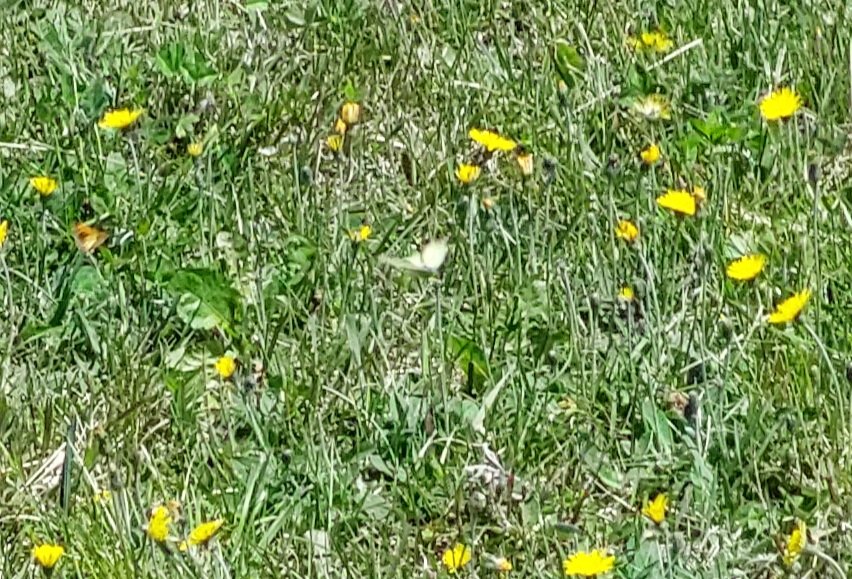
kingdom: Animalia
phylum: Arthropoda
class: Insecta
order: Lepidoptera
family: Pieridae
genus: Colias
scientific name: Colias philodice
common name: Clouded Sulphur
